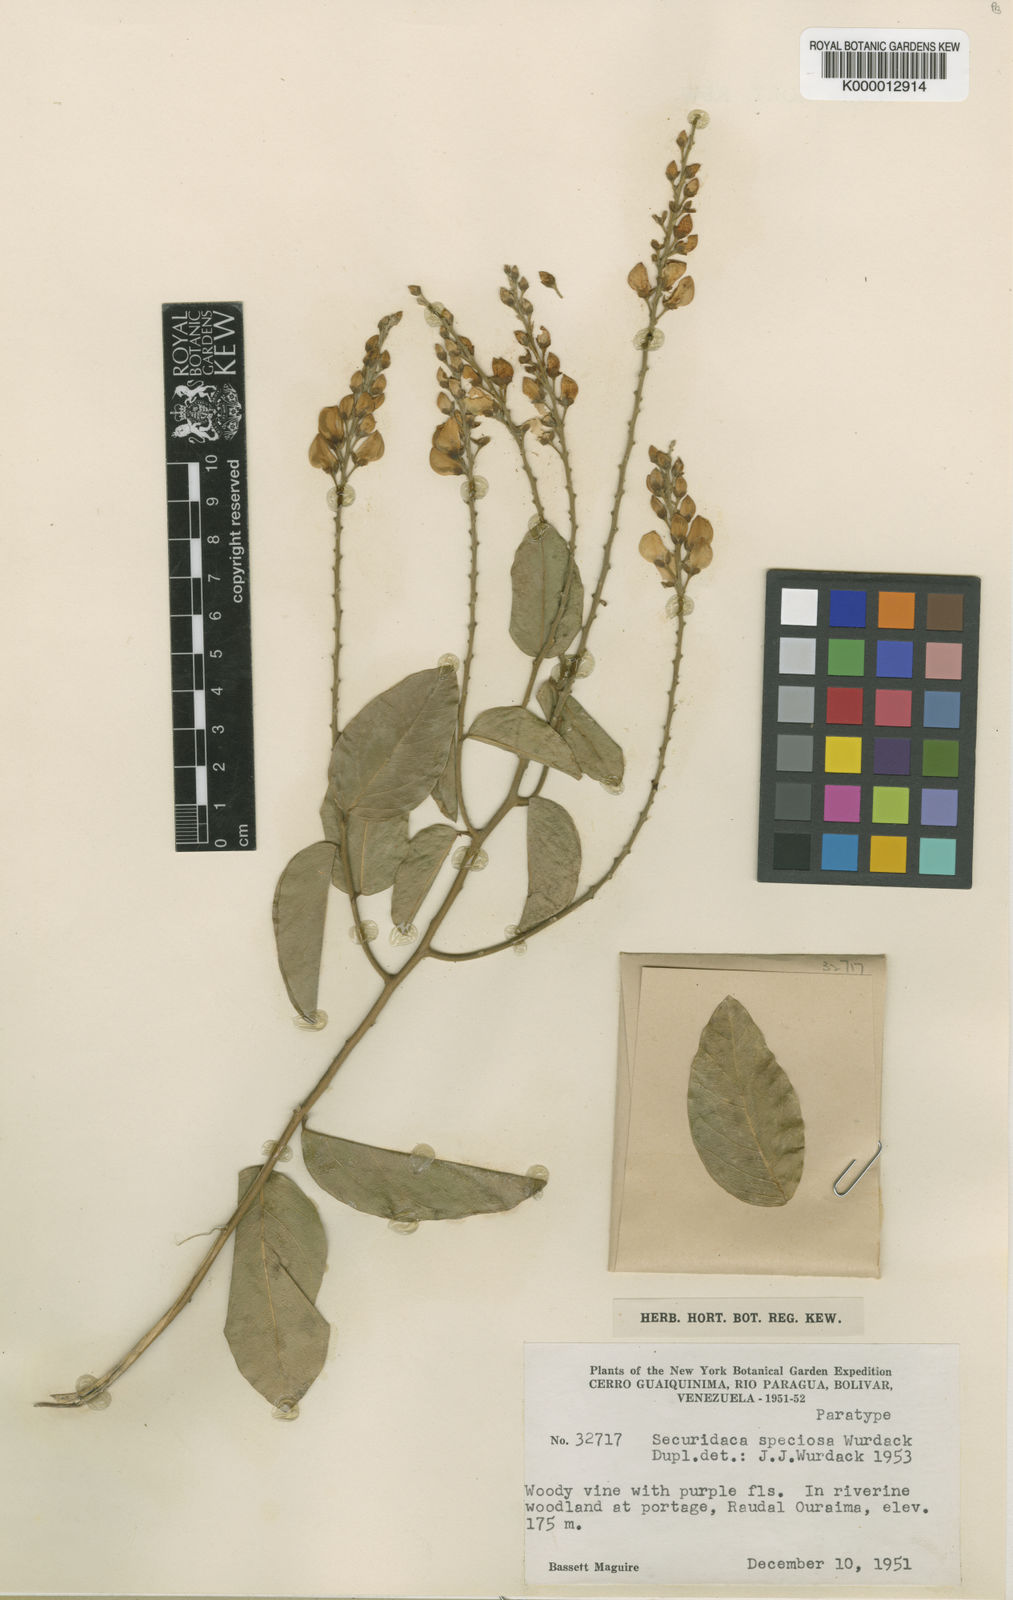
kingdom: Plantae
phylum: Tracheophyta
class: Magnoliopsida
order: Fabales
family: Polygalaceae
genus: Securidaca
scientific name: Securidaca speciosa
